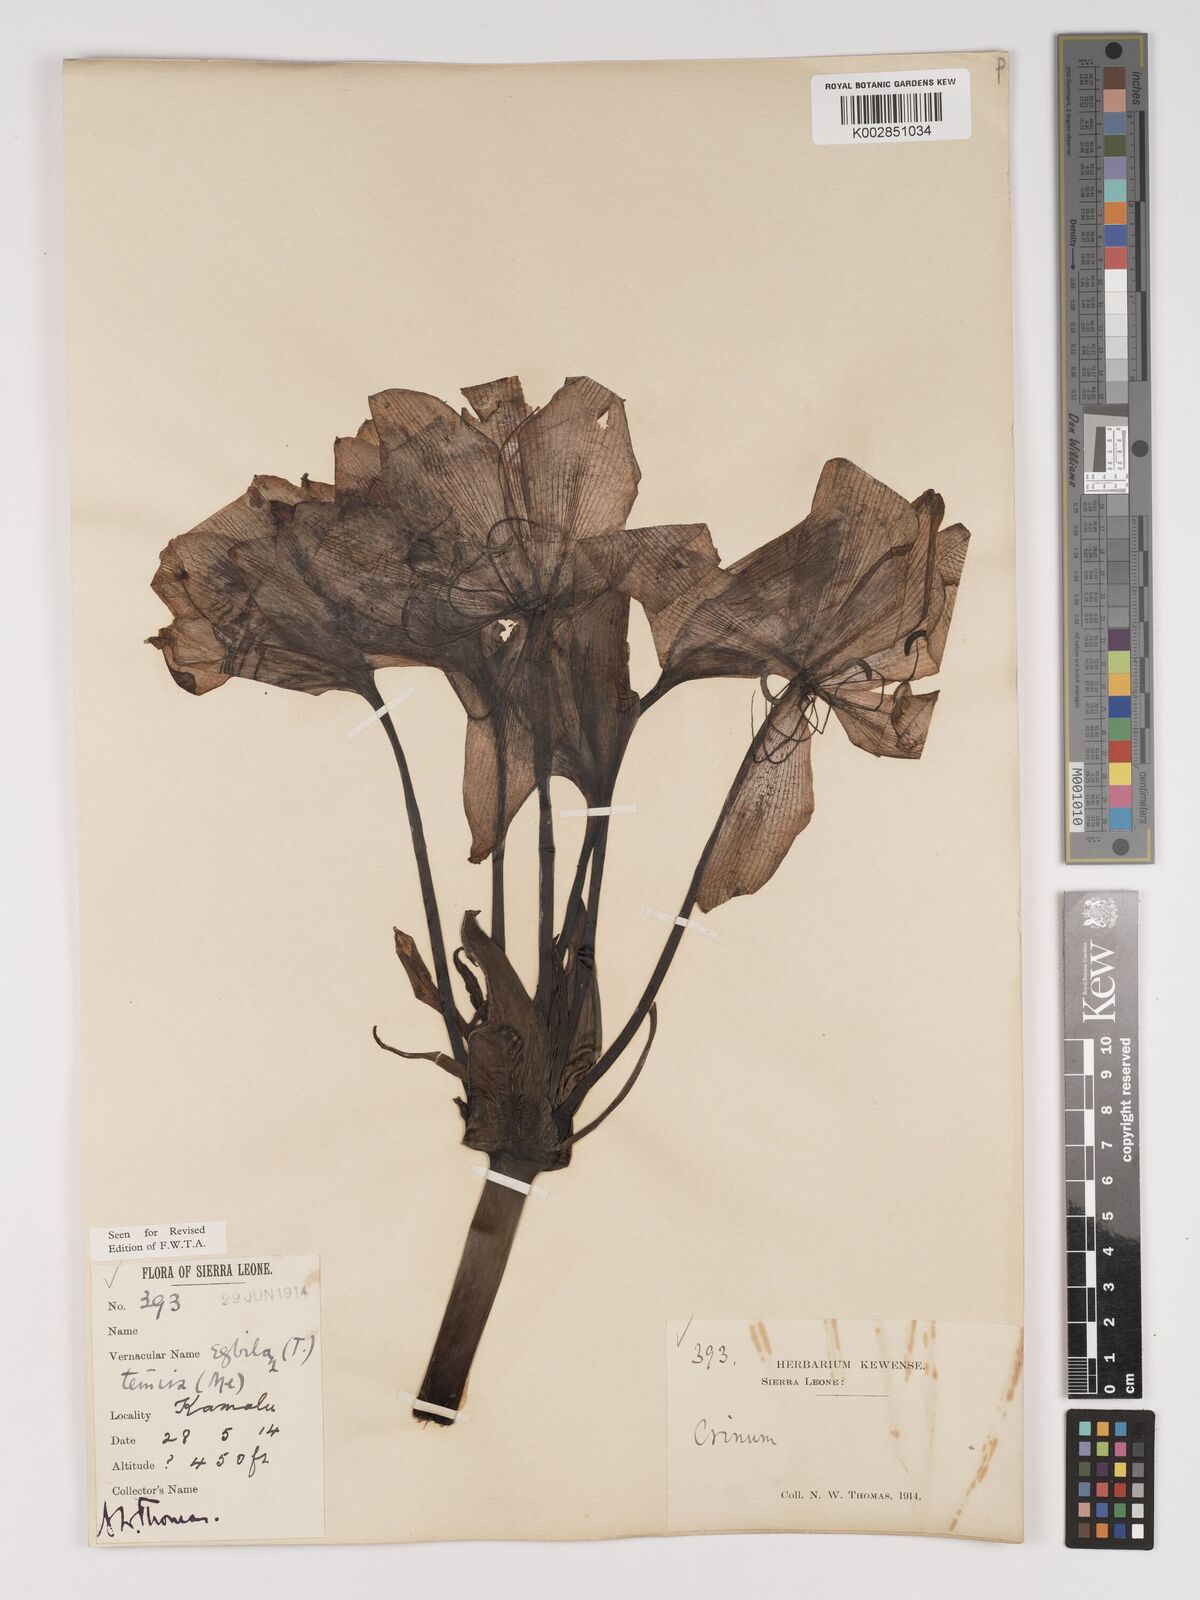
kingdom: Plantae
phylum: Tracheophyta
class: Liliopsida
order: Asparagales
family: Amaryllidaceae
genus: Crinum
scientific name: Crinum jagus
